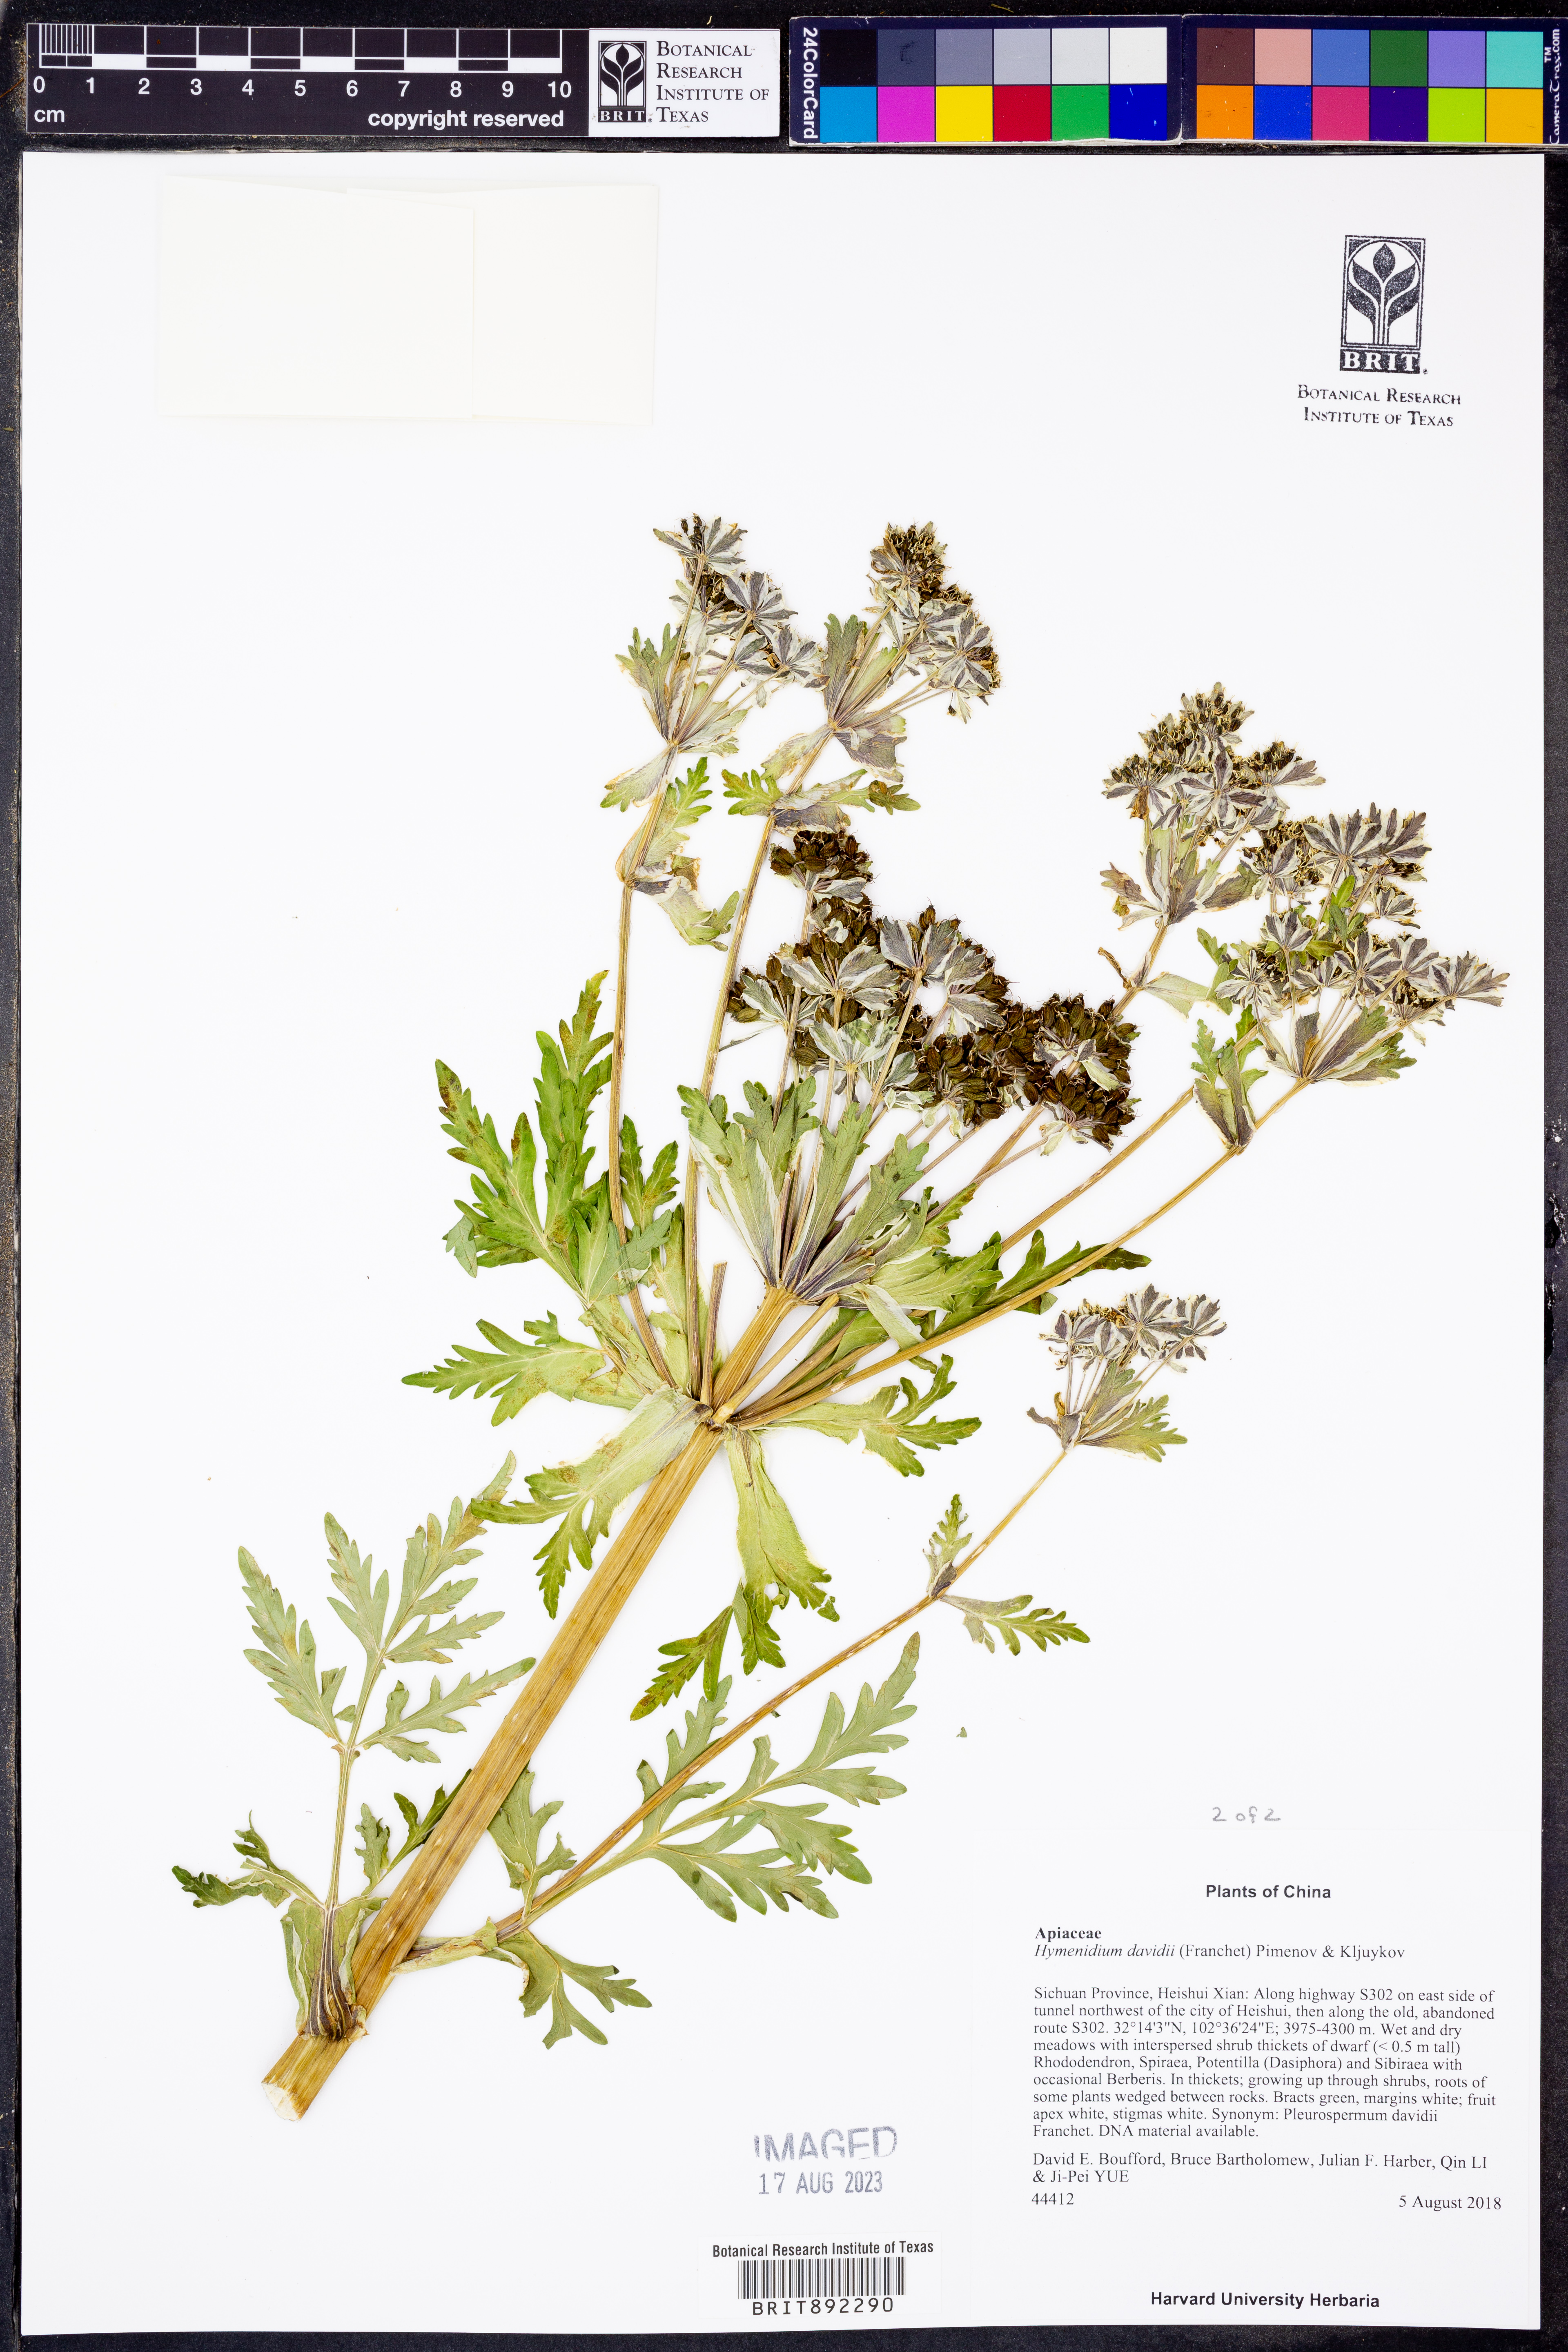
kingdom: Plantae
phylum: Tracheophyta
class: Magnoliopsida
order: Apiales
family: Apiaceae
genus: Hymenidium
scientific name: Hymenidium davidii
